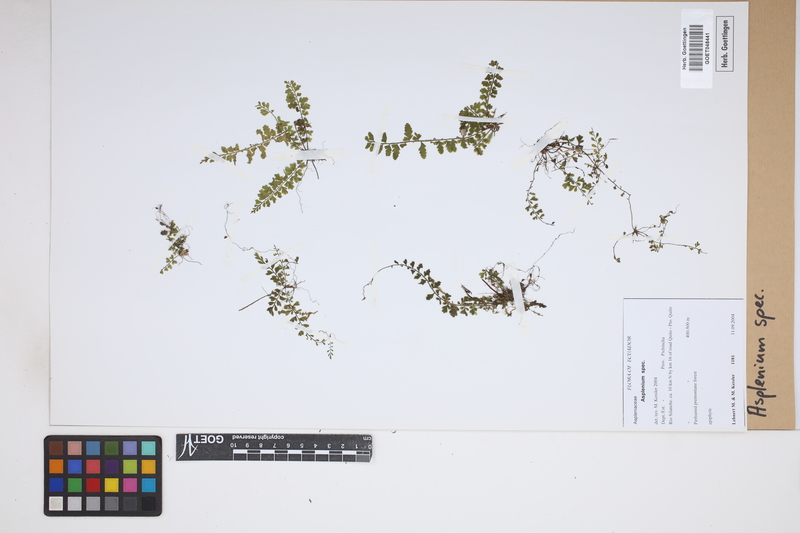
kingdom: Plantae
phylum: Tracheophyta
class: Polypodiopsida
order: Polypodiales
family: Aspleniaceae
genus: Asplenium
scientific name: Asplenium
